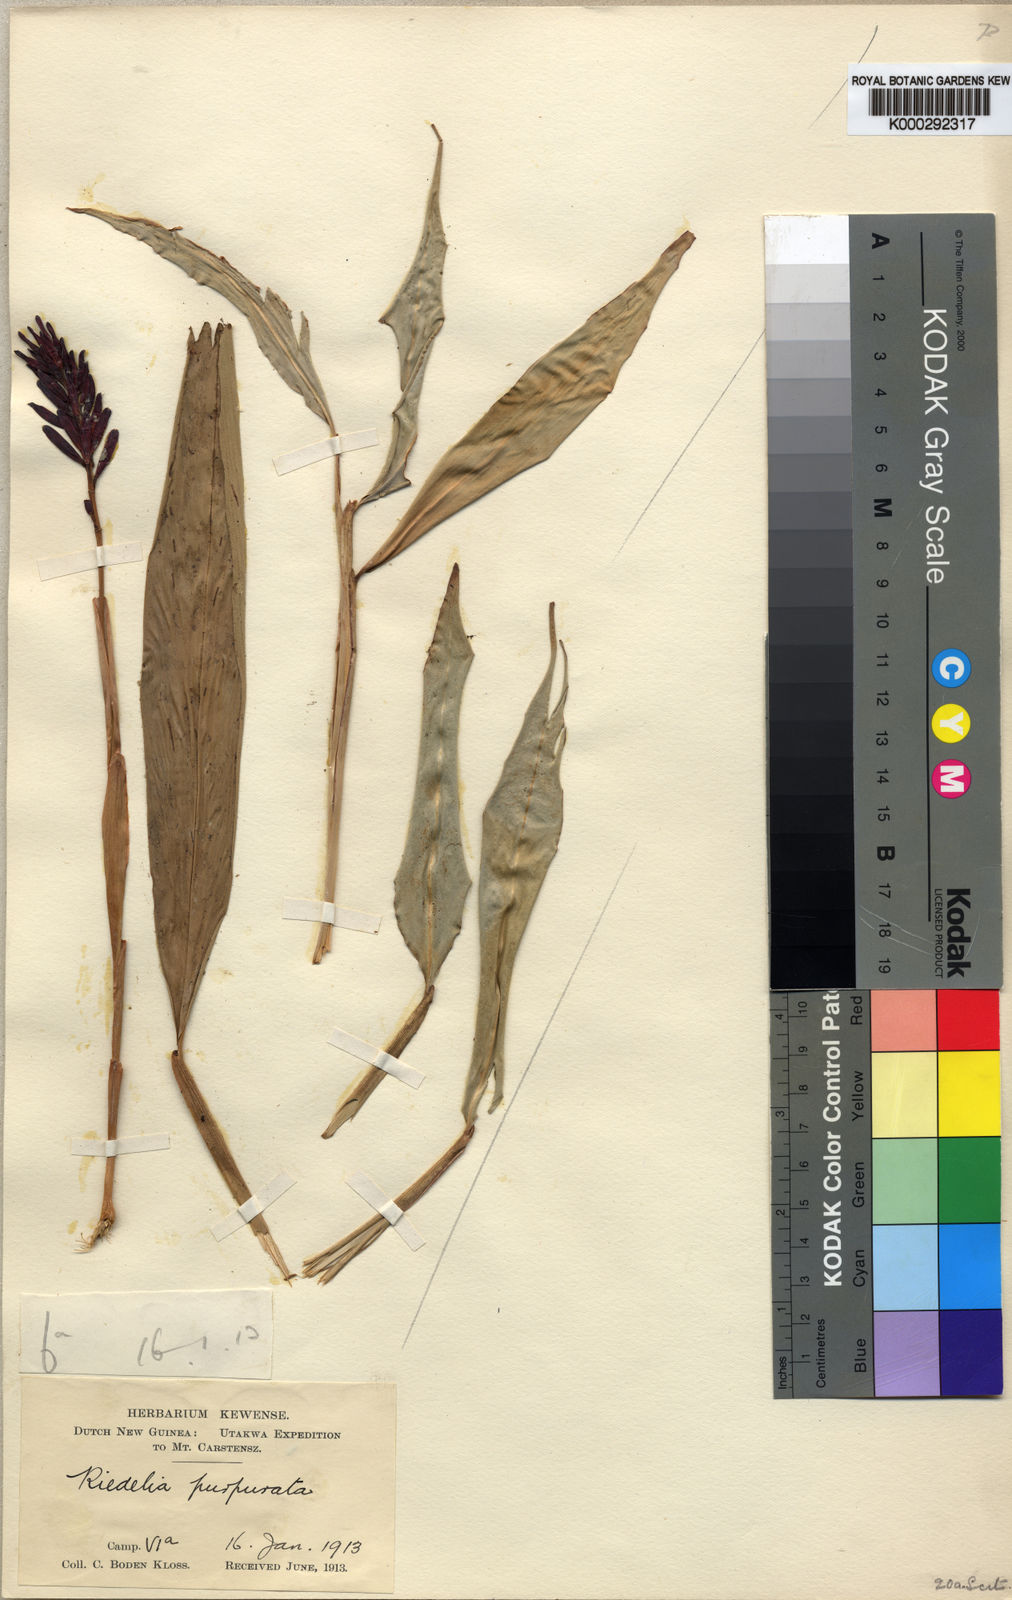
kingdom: Plantae
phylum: Tracheophyta
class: Liliopsida
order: Zingiberales
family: Zingiberaceae
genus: Riedelia
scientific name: Riedelia purpurata
